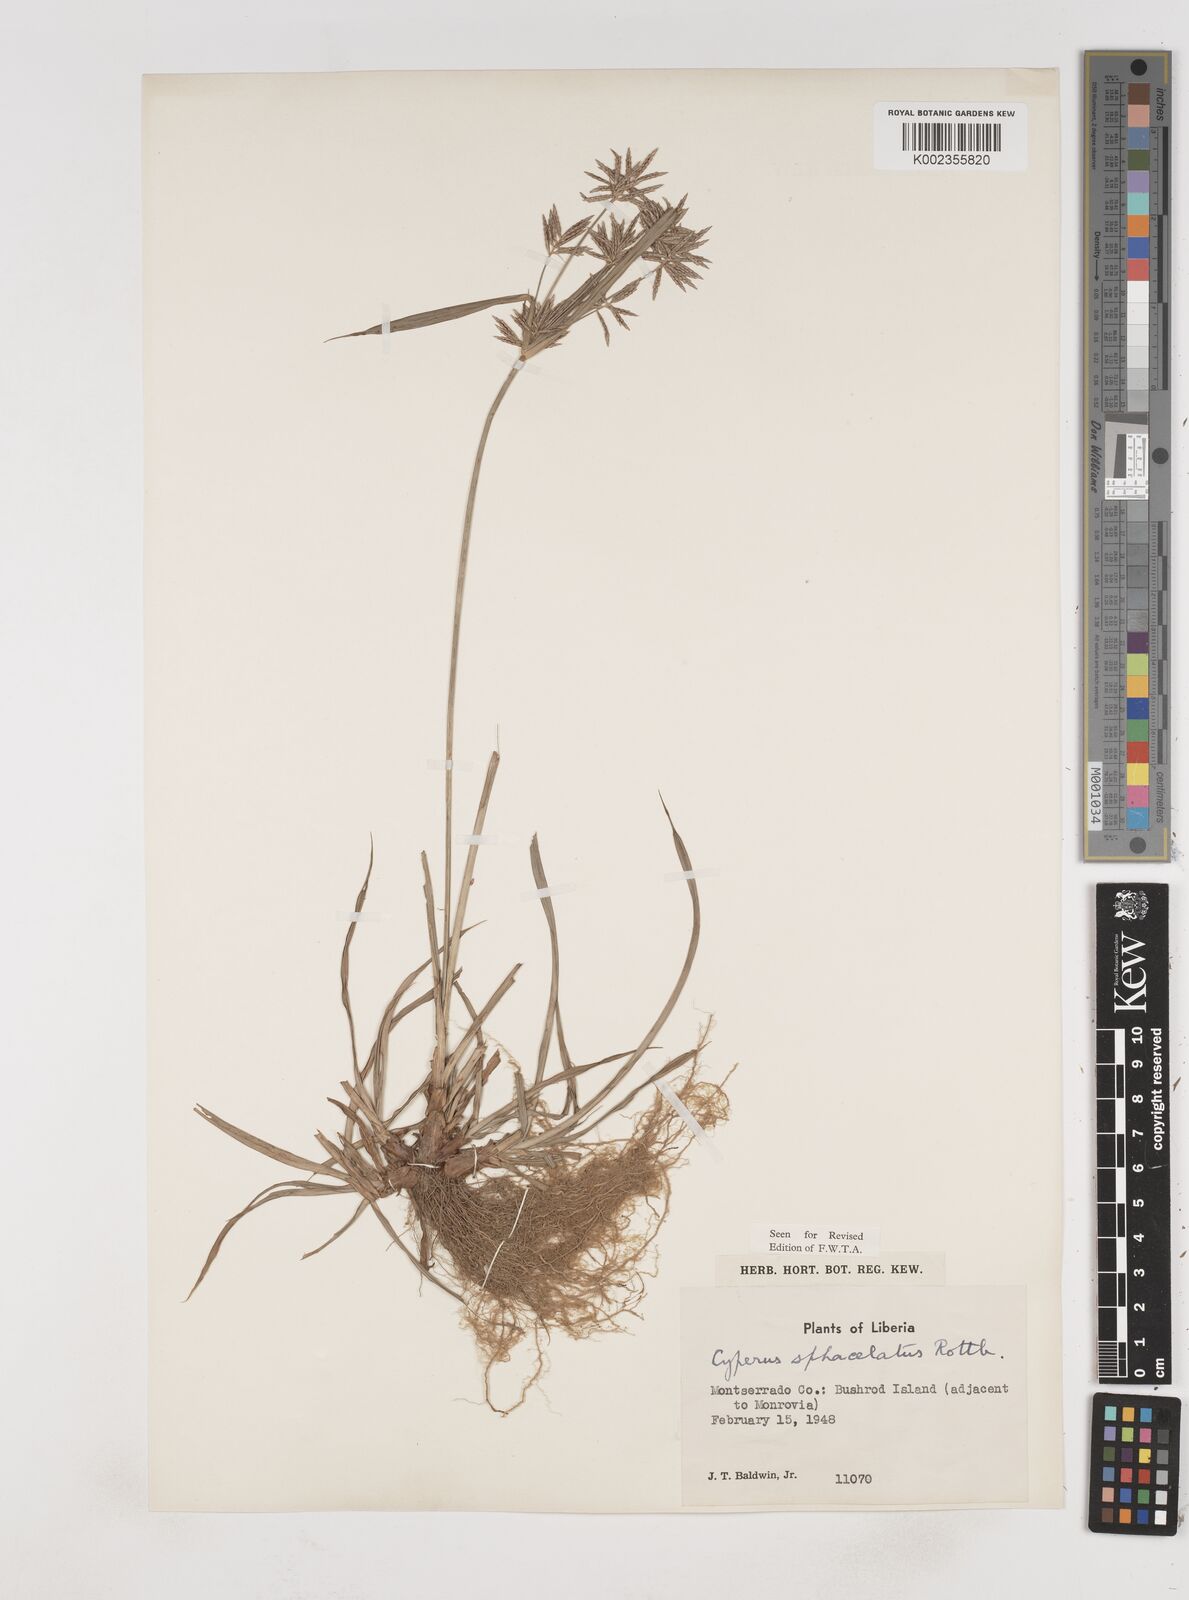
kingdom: Plantae
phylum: Tracheophyta
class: Liliopsida
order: Poales
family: Cyperaceae
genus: Cyperus
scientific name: Cyperus sphacelatus
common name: Roadside flatsedge
